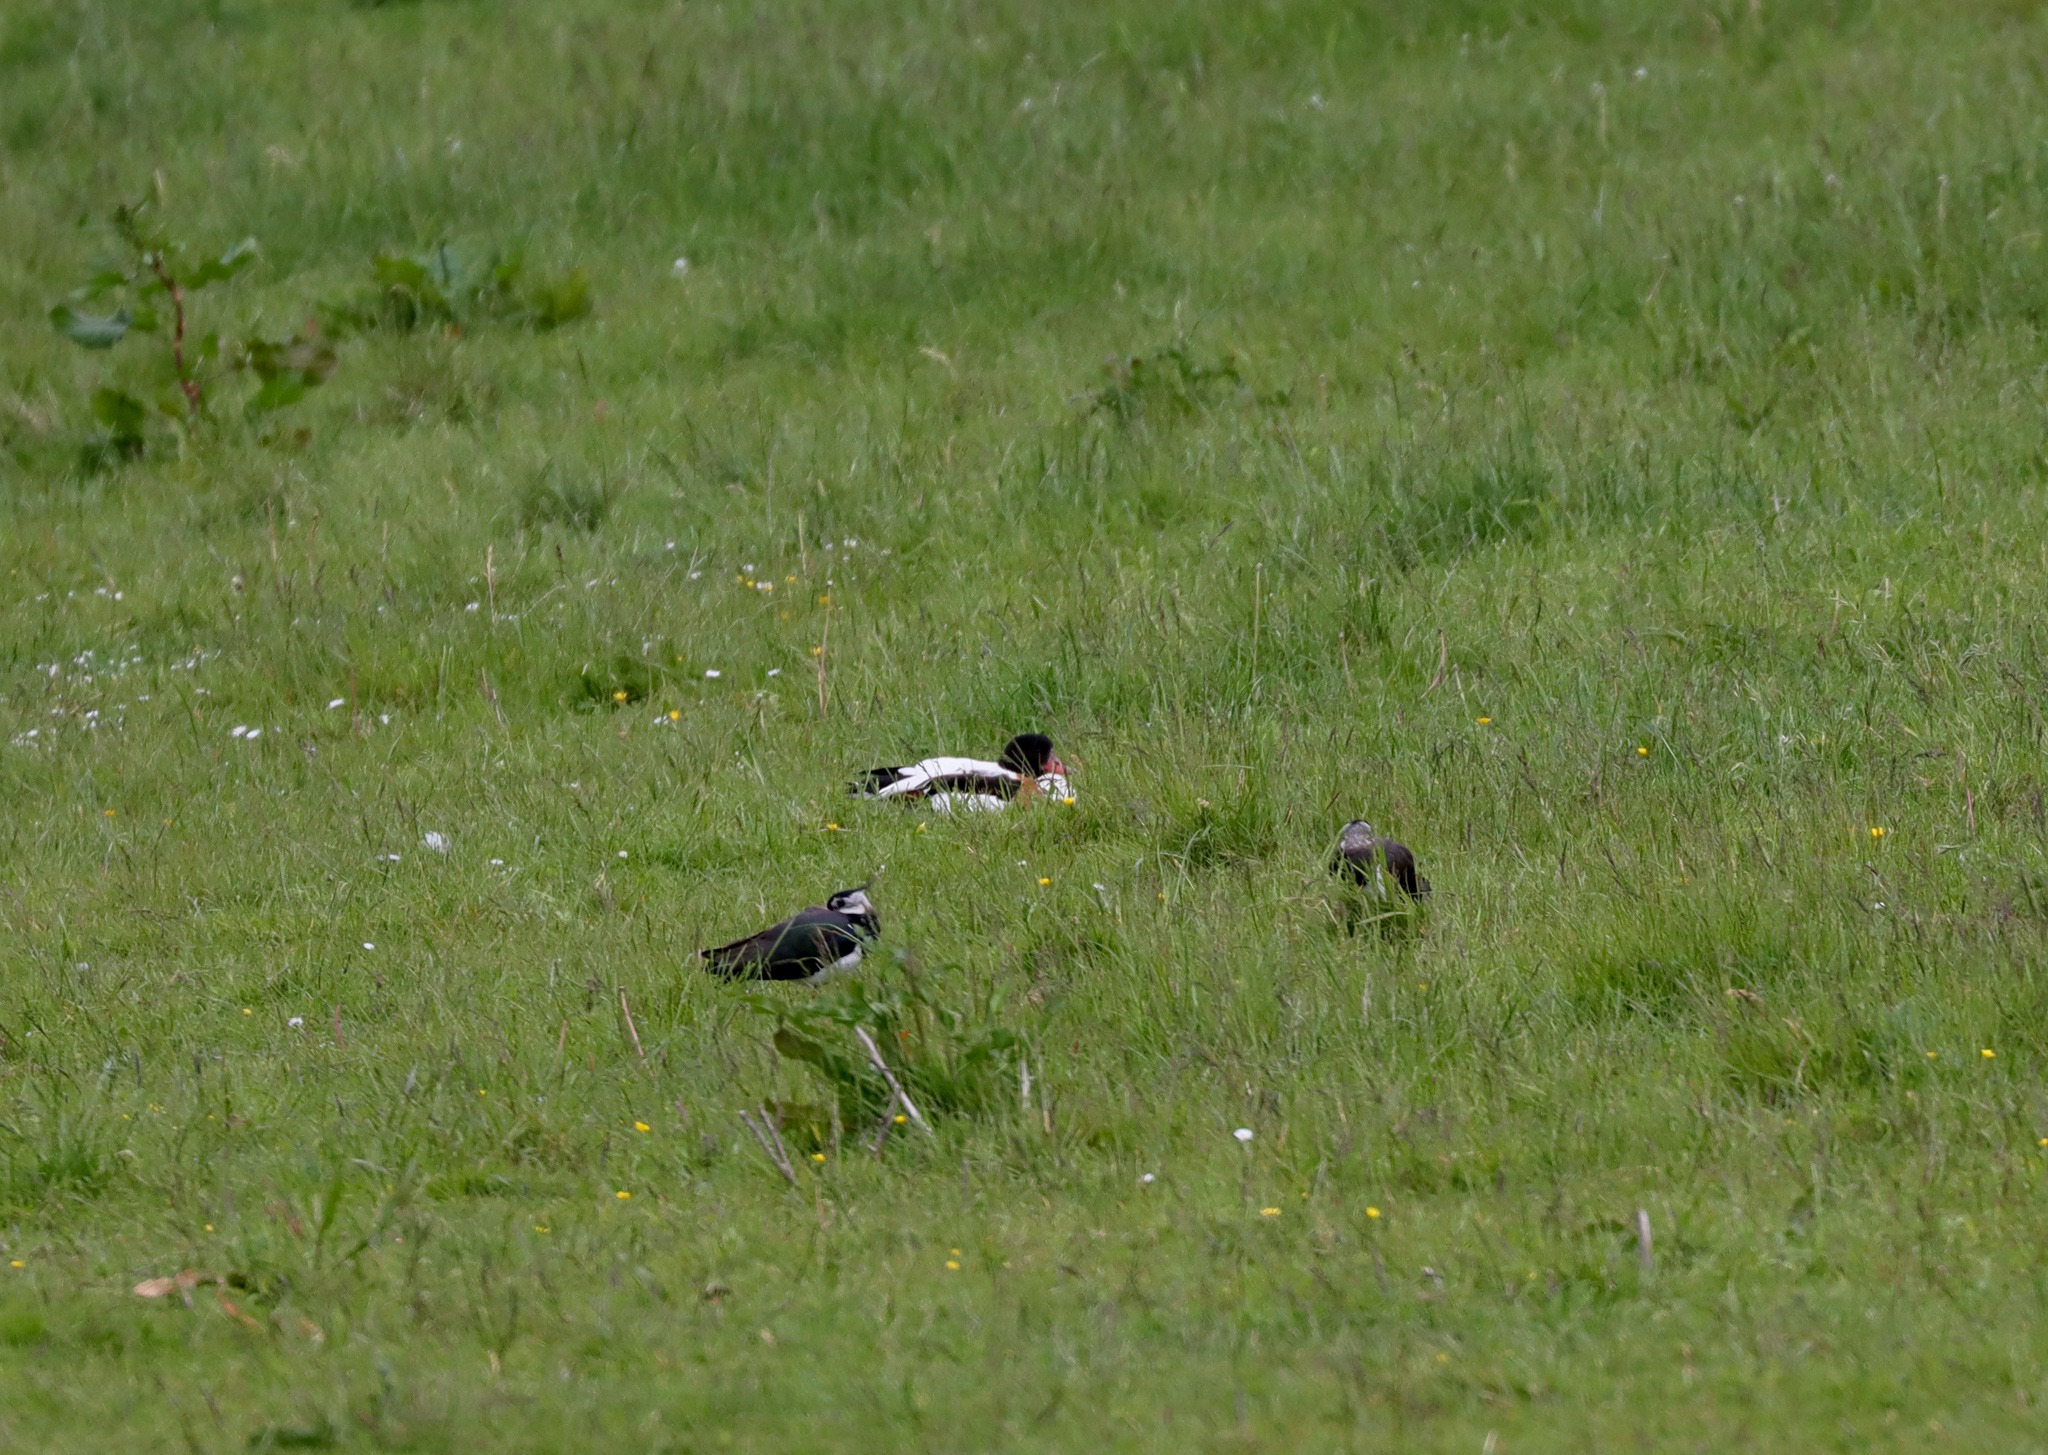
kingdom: Animalia
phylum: Chordata
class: Aves
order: Anseriformes
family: Anatidae
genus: Tadorna
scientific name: Tadorna tadorna
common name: Gravand
